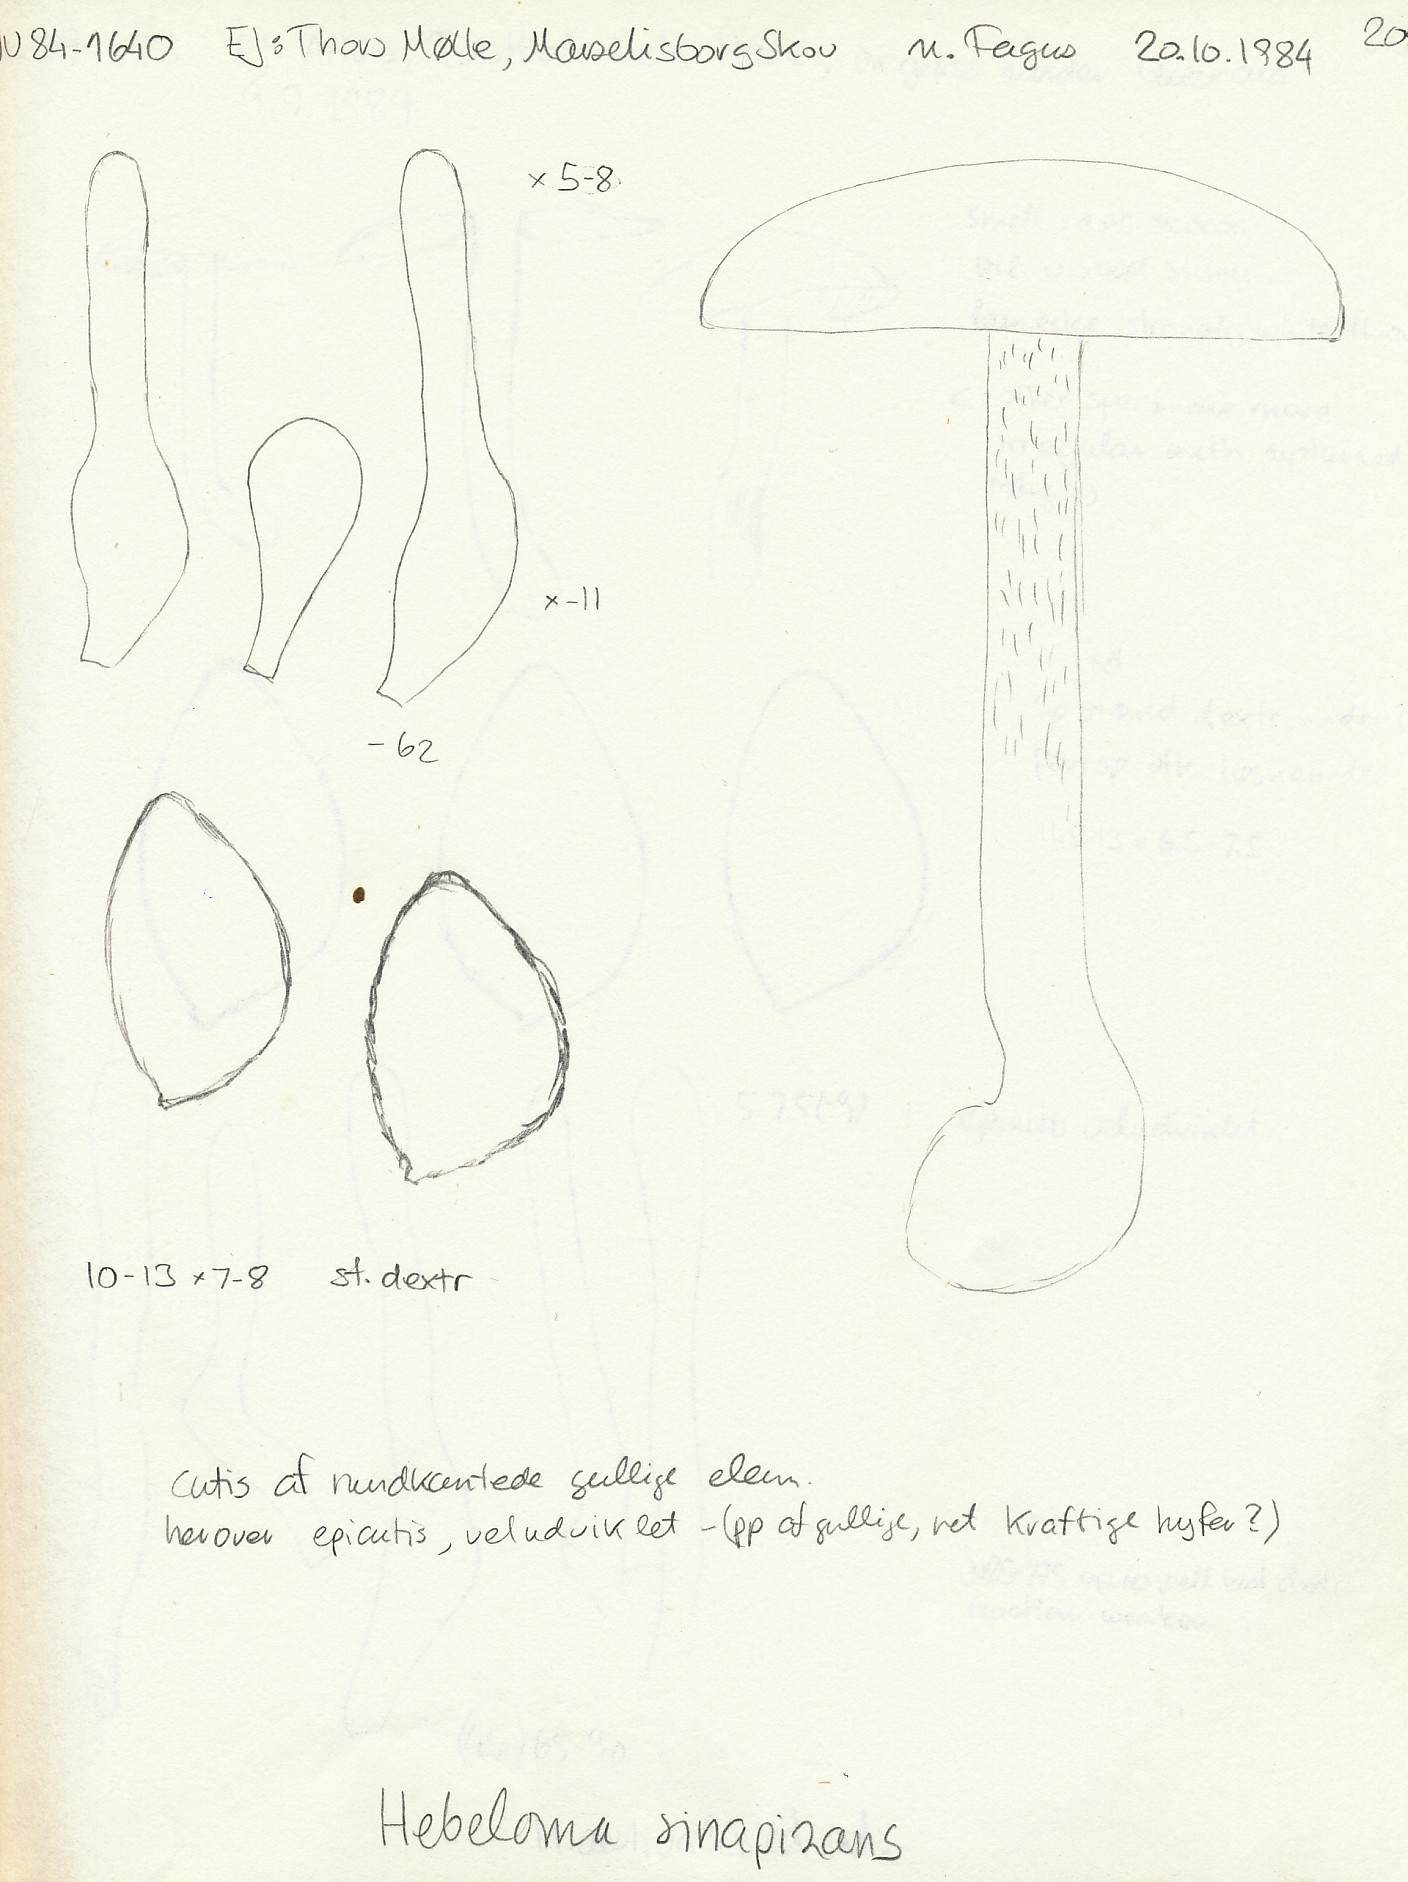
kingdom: Fungi
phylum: Basidiomycota
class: Agaricomycetes
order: Agaricales
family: Hymenogastraceae
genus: Hebeloma
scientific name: Hebeloma sinapizans
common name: ræddike-tåreblad
